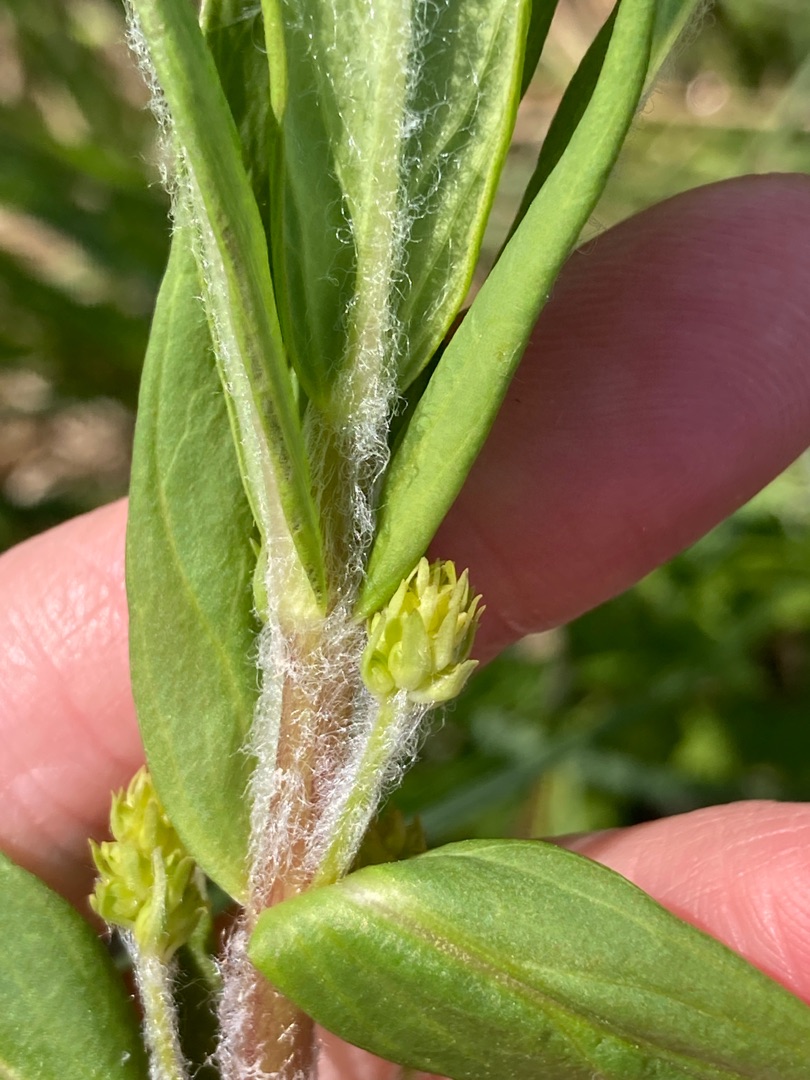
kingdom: Plantae
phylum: Tracheophyta
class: Magnoliopsida
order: Ericales
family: Primulaceae
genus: Lysimachia
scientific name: Lysimachia thyrsiflora
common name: Dusk-fredløs
